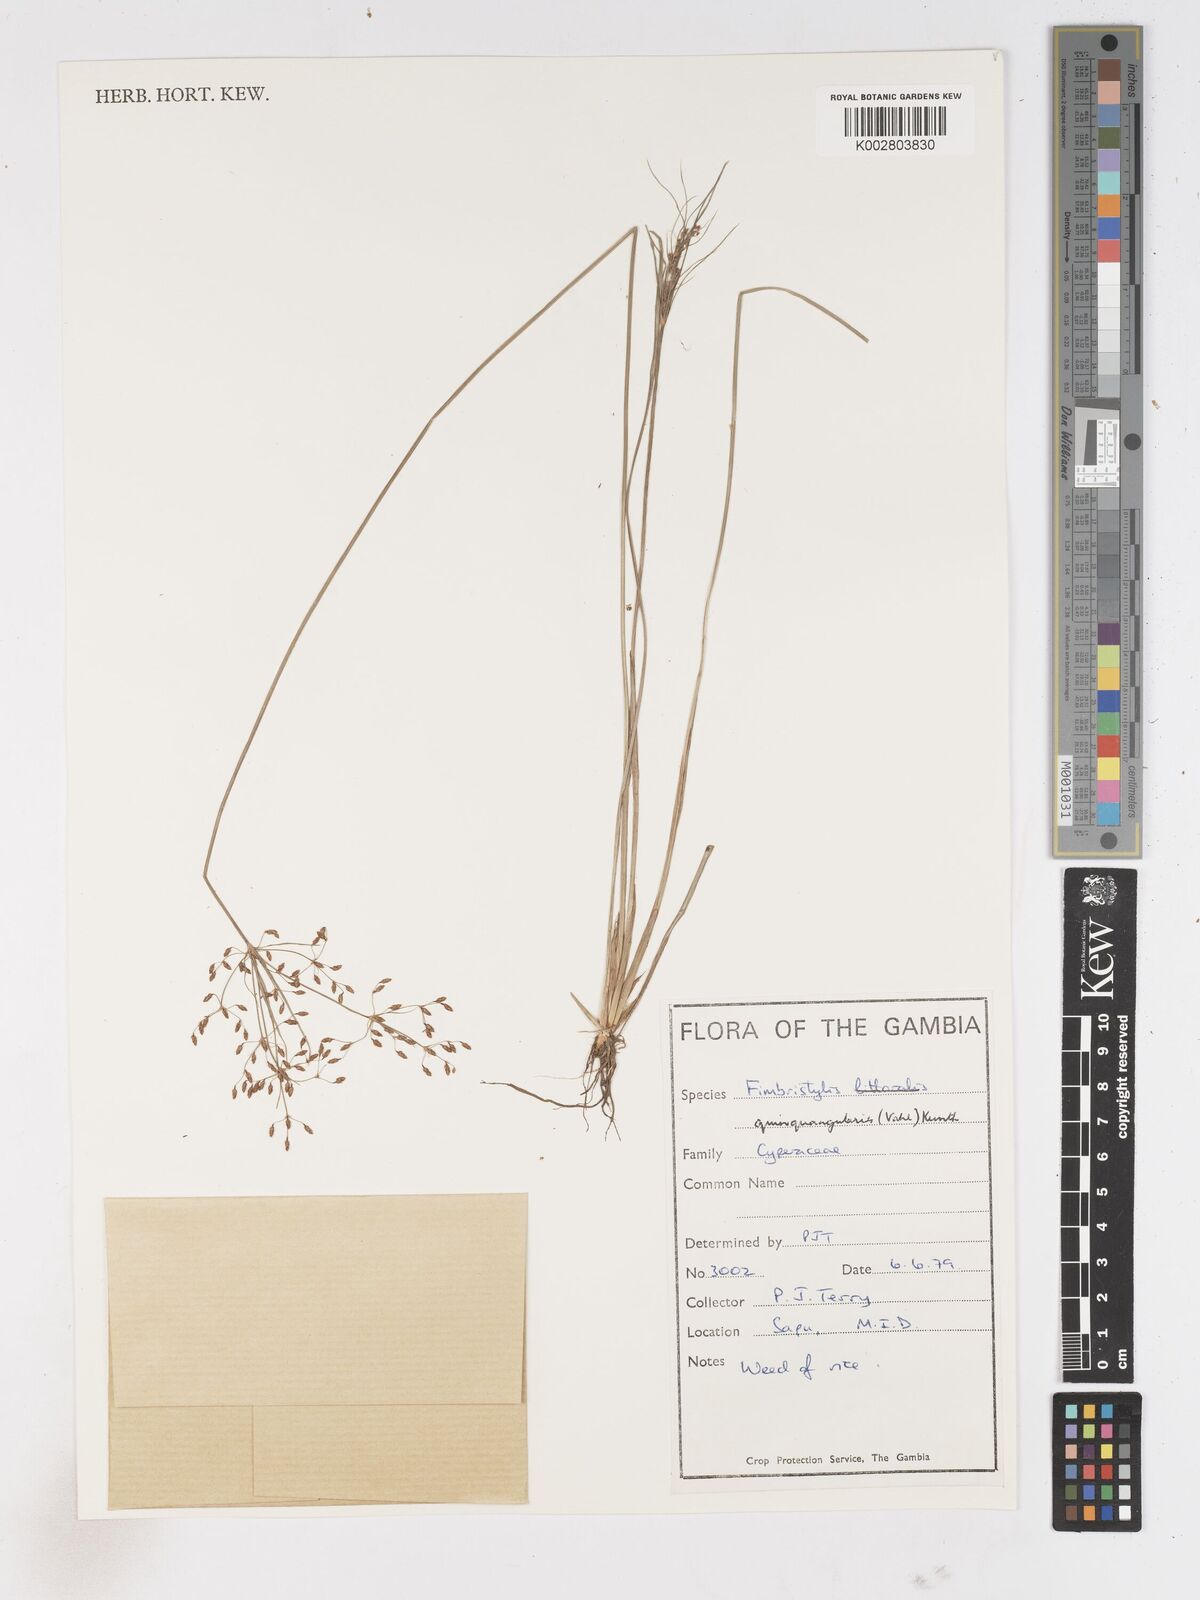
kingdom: Plantae
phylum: Tracheophyta
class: Liliopsida
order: Poales
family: Cyperaceae
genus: Fimbristylis
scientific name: Fimbristylis quinquangularis
